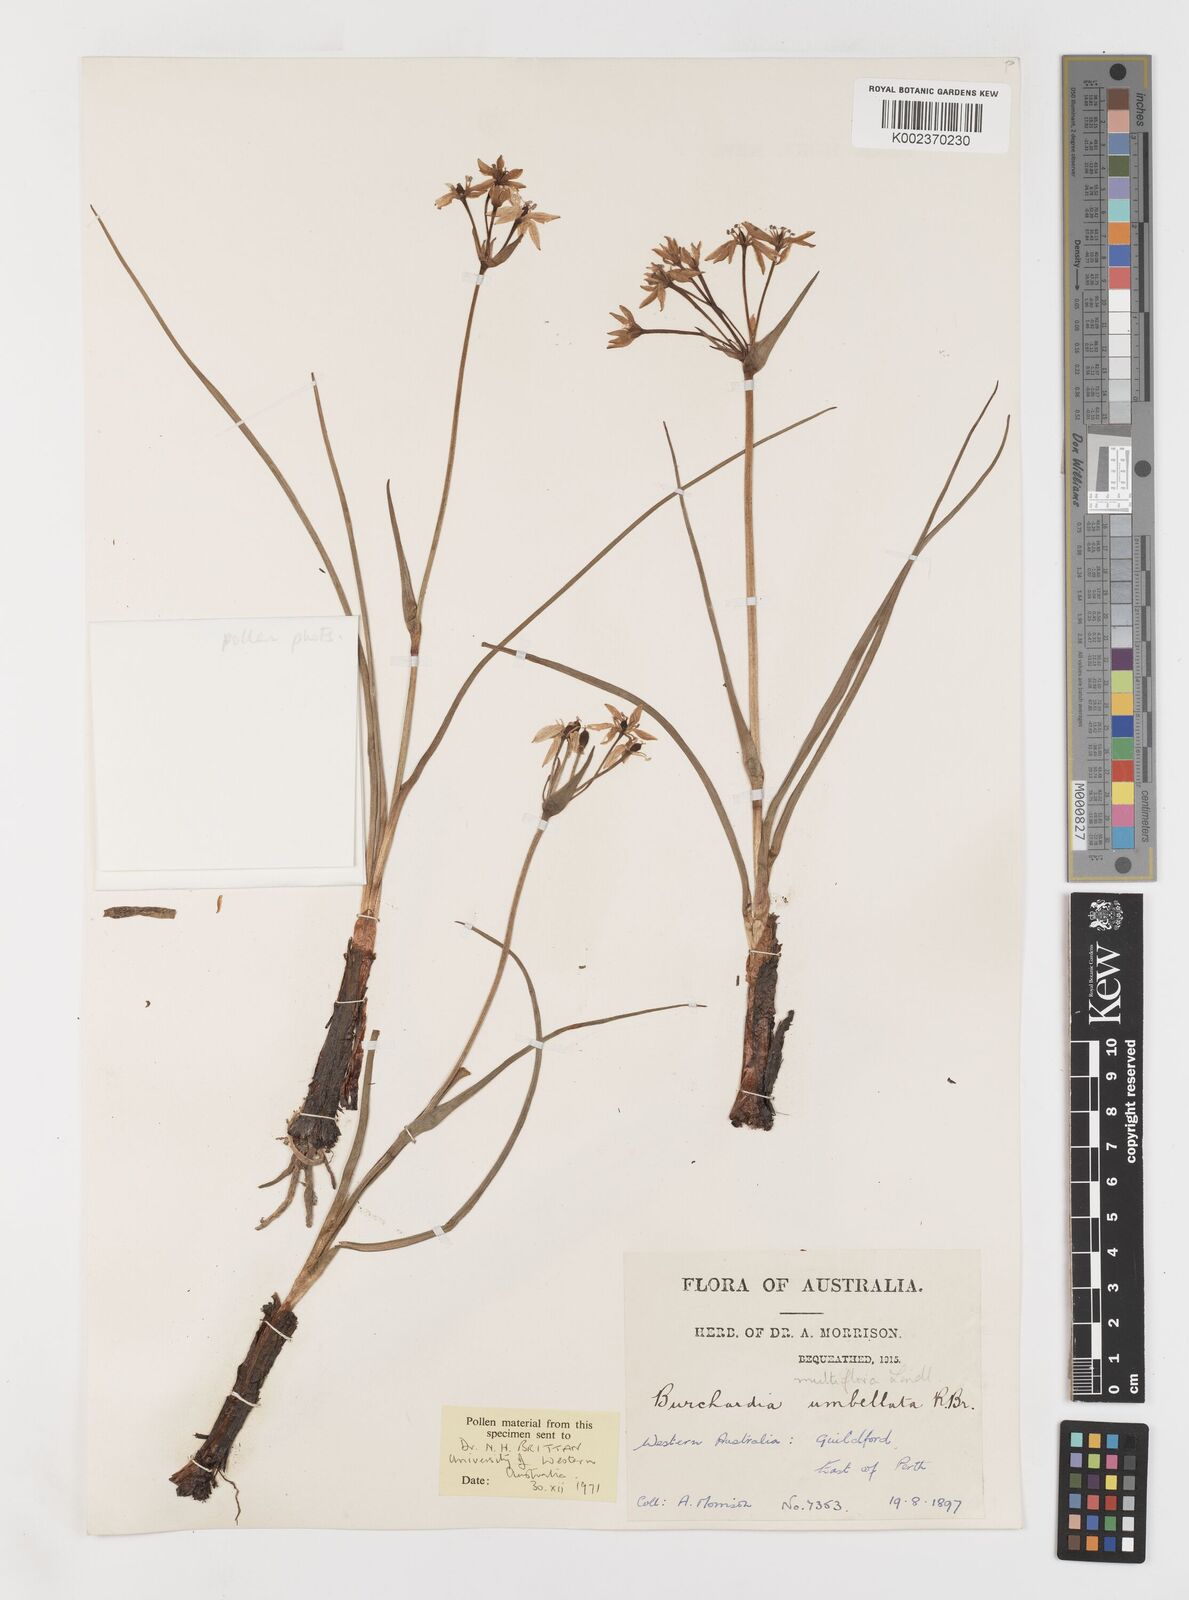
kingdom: Plantae
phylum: Tracheophyta
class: Liliopsida
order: Liliales
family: Colchicaceae
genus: Burchardia
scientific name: Burchardia multiflora
